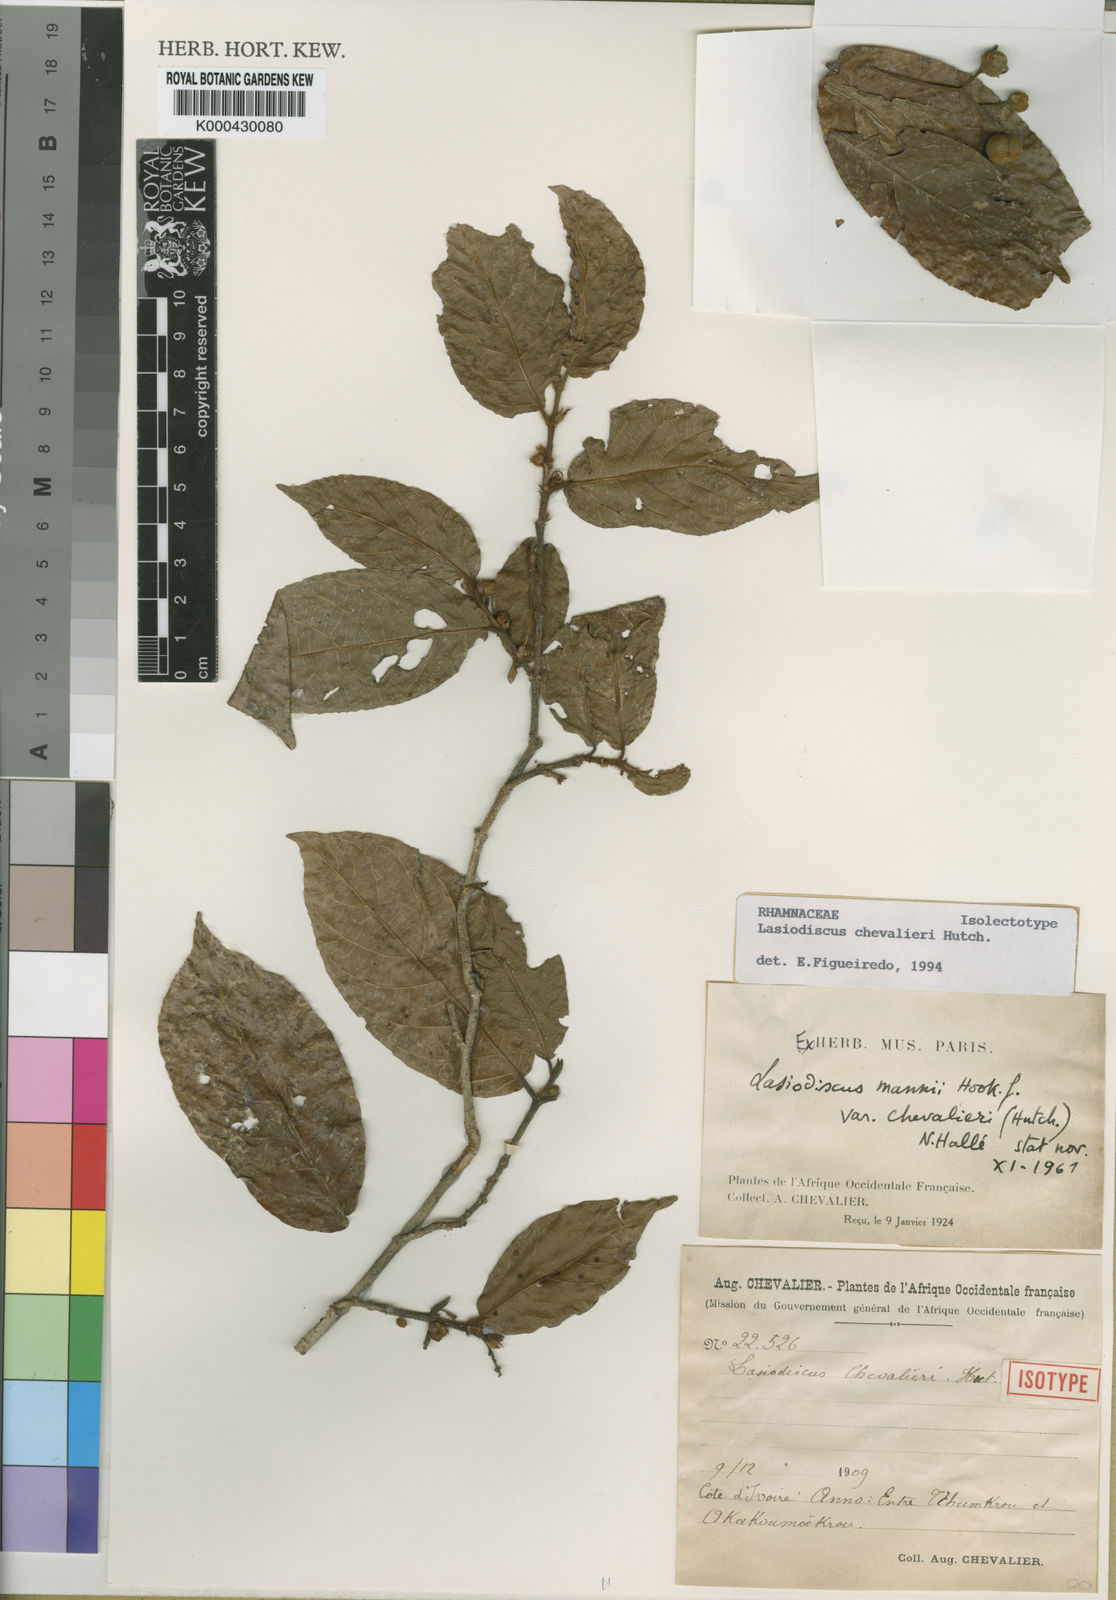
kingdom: Plantae
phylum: Tracheophyta
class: Magnoliopsida
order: Rosales
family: Rhamnaceae
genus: Lasiodiscus
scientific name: Lasiodiscus chevalieri
